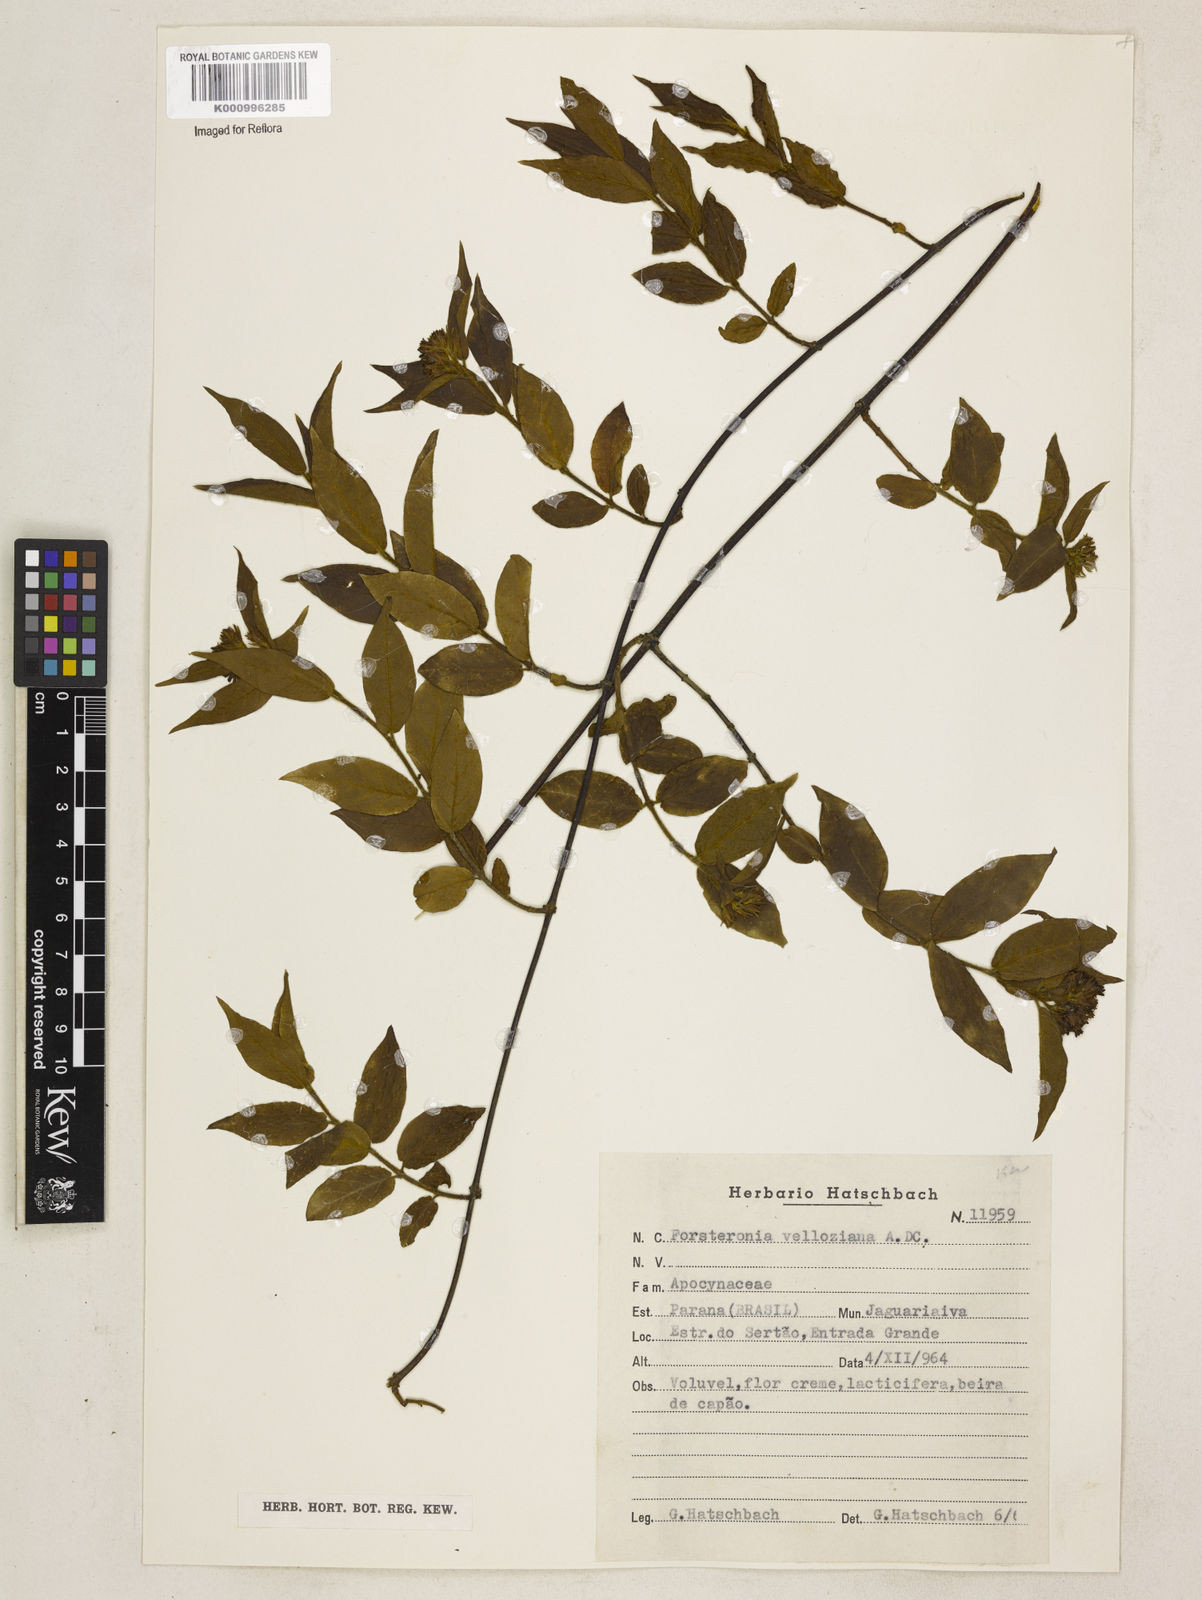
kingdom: Plantae
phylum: Tracheophyta
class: Magnoliopsida
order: Gentianales
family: Apocynaceae
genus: Forsteronia
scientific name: Forsteronia velloziana
